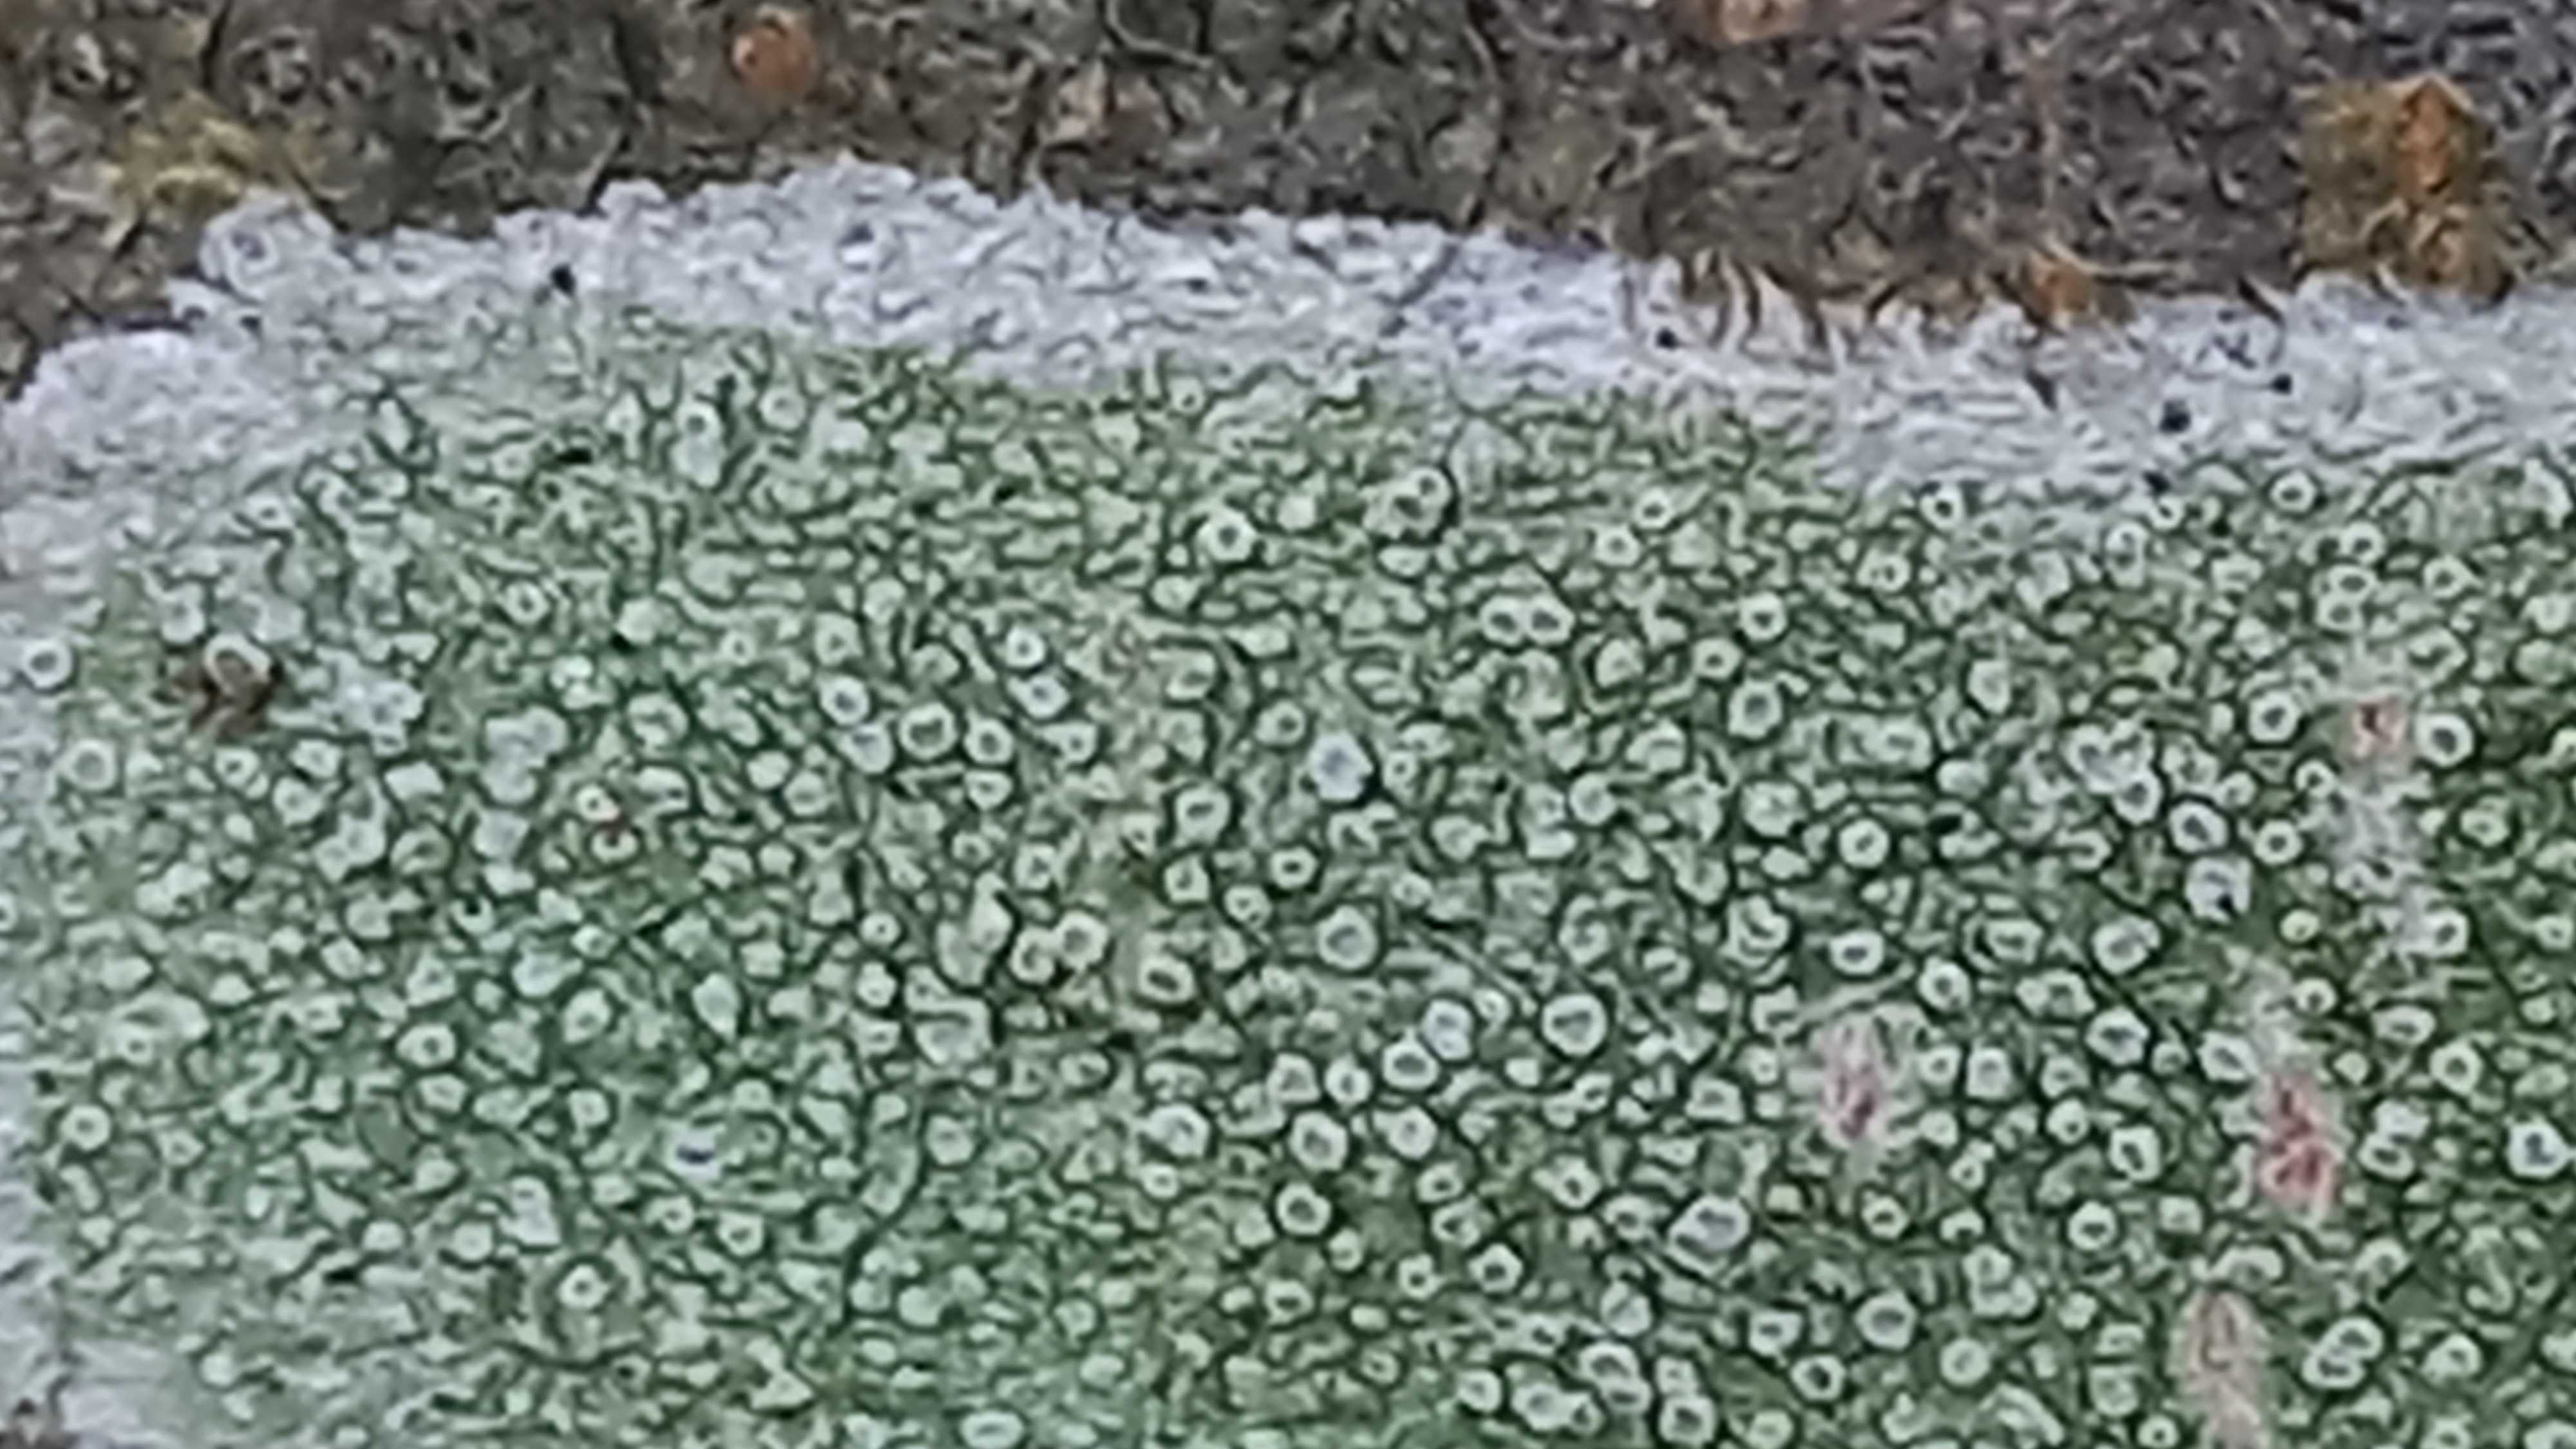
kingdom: Fungi
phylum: Ascomycota
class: Lecanoromycetes
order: Lecanorales
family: Lecanoraceae
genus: Lecanora
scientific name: Lecanora
